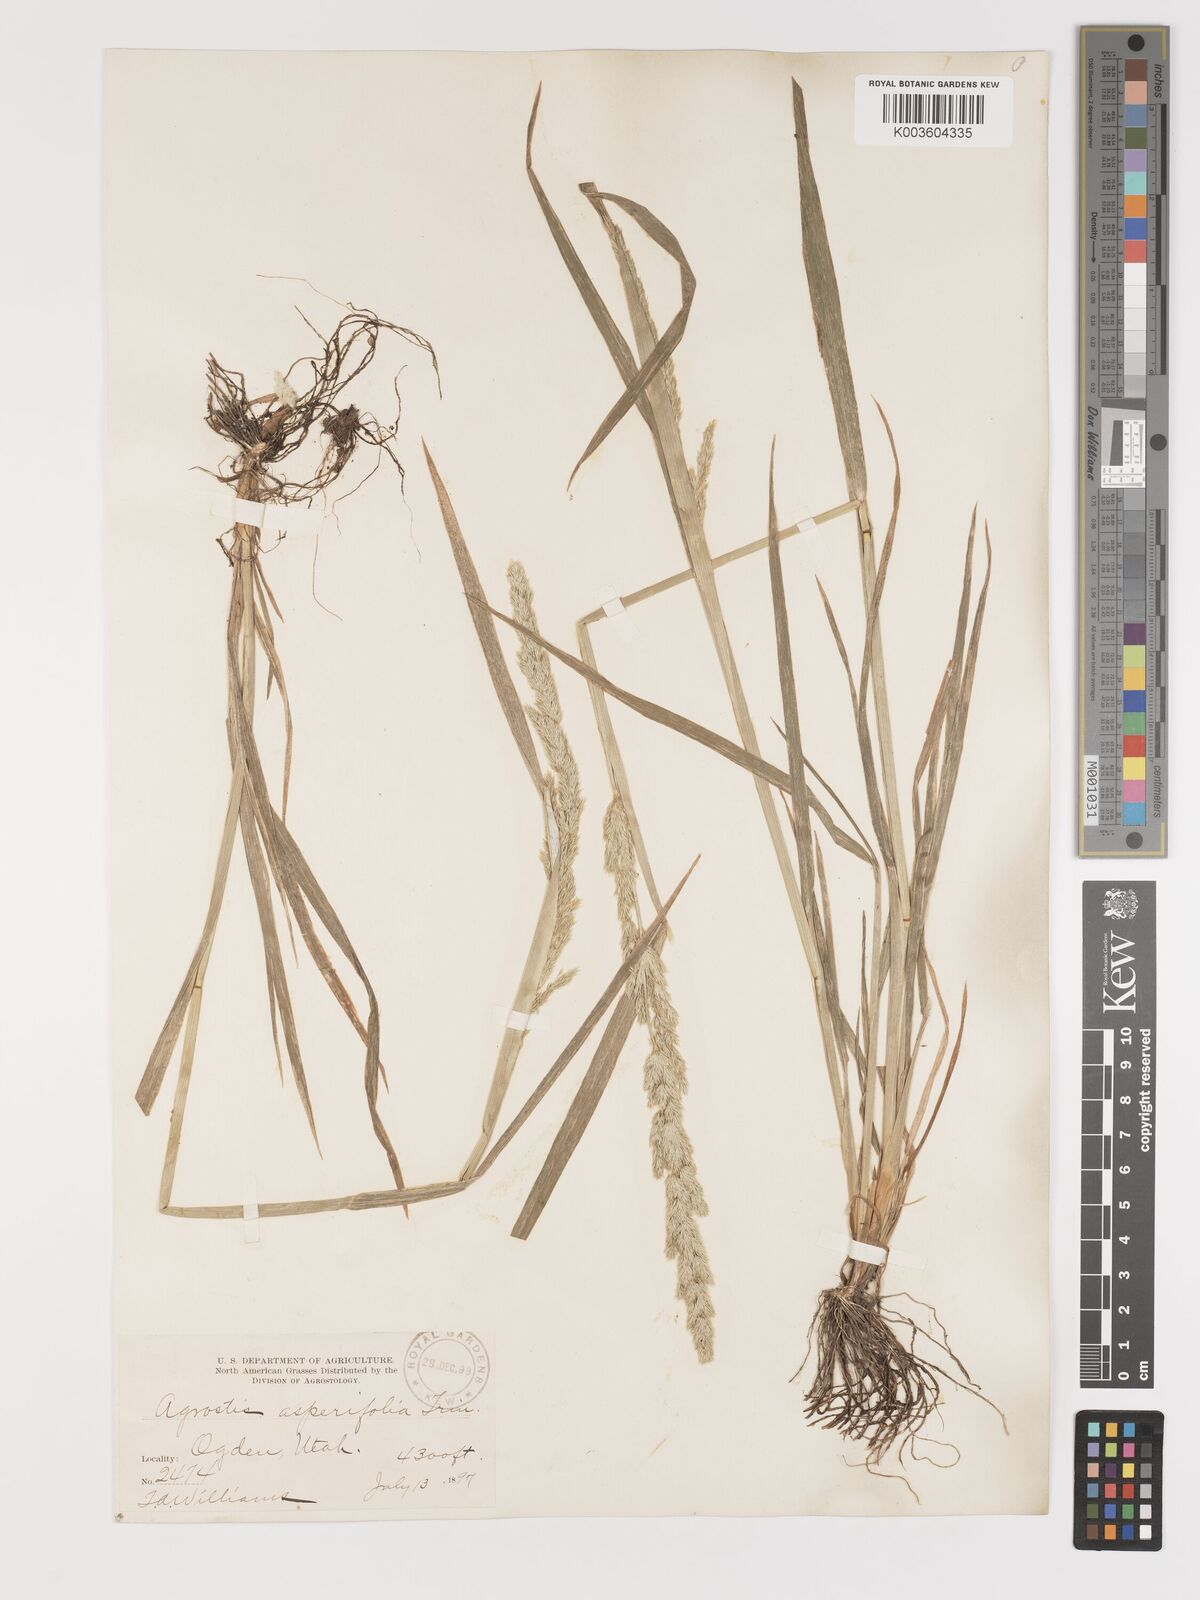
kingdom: Plantae
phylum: Tracheophyta
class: Liliopsida
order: Poales
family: Poaceae
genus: Agrostis
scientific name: Agrostis exarata
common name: Spike bent
